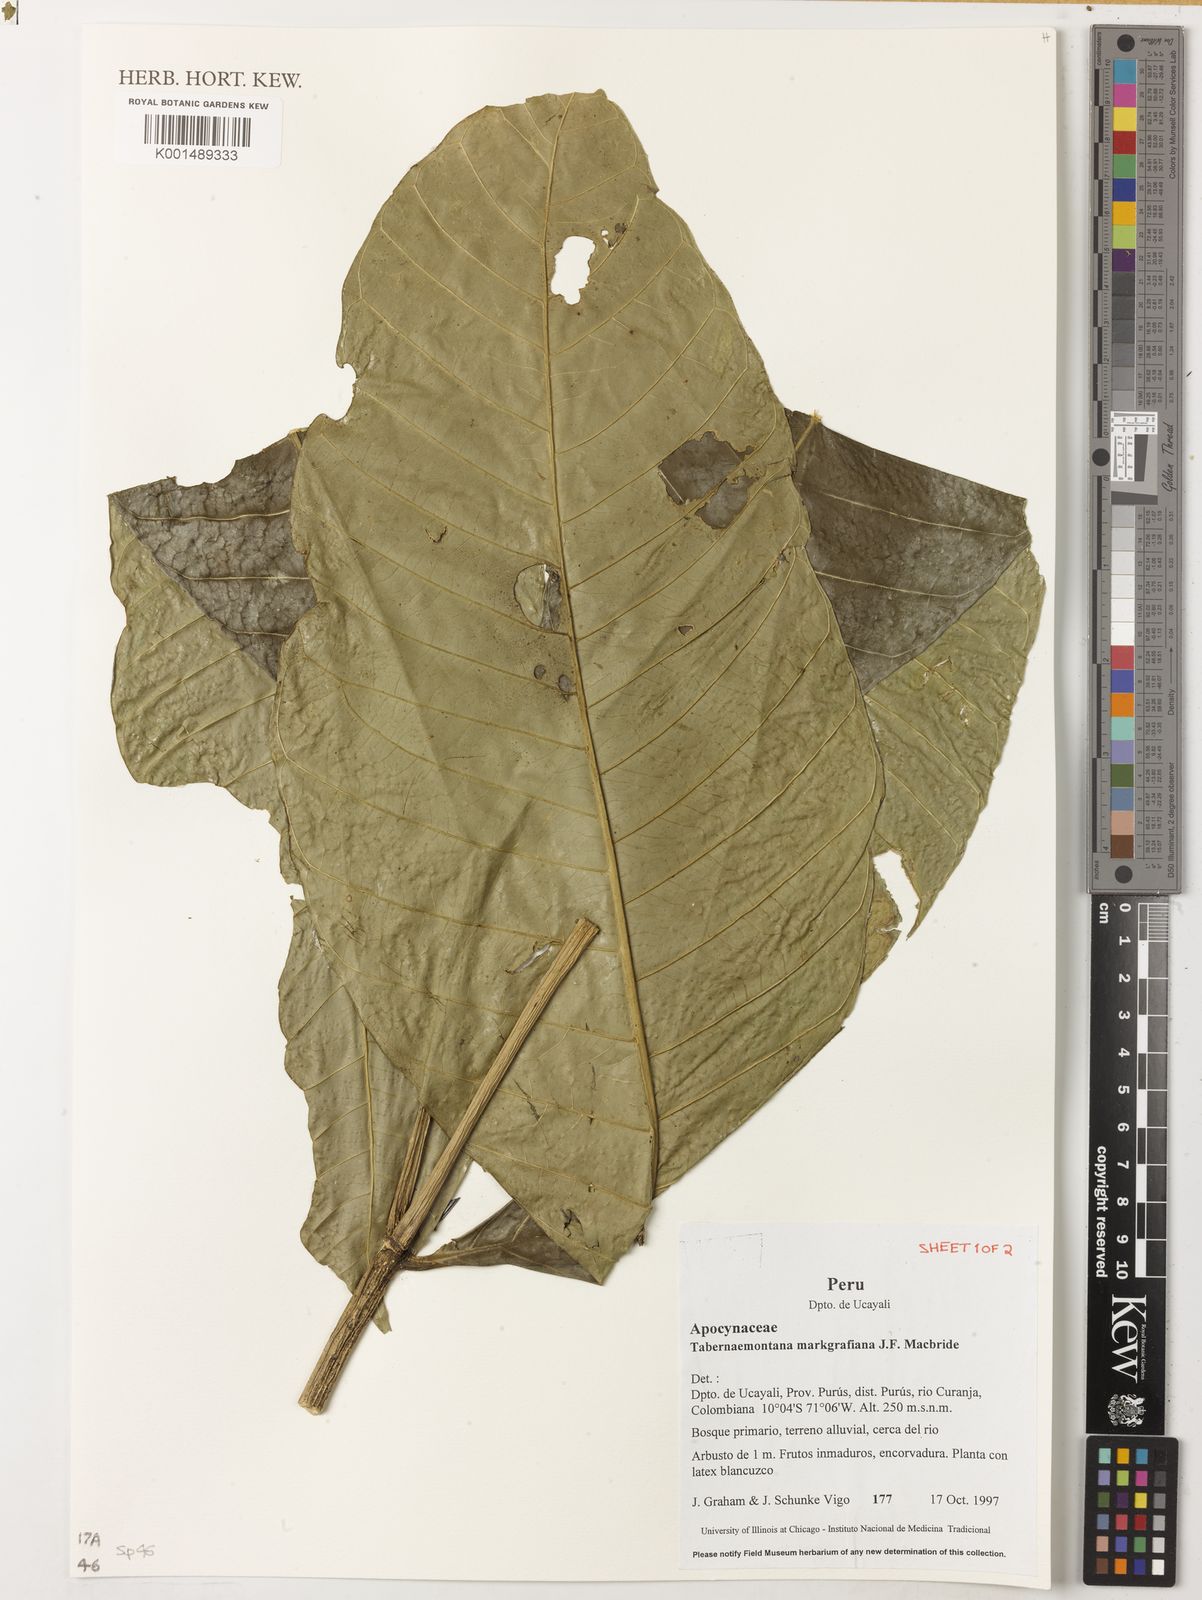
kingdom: Plantae
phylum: Tracheophyta
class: Magnoliopsida
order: Gentianales
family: Apocynaceae
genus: Tabernaemontana
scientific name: Tabernaemontana markgrafiana
